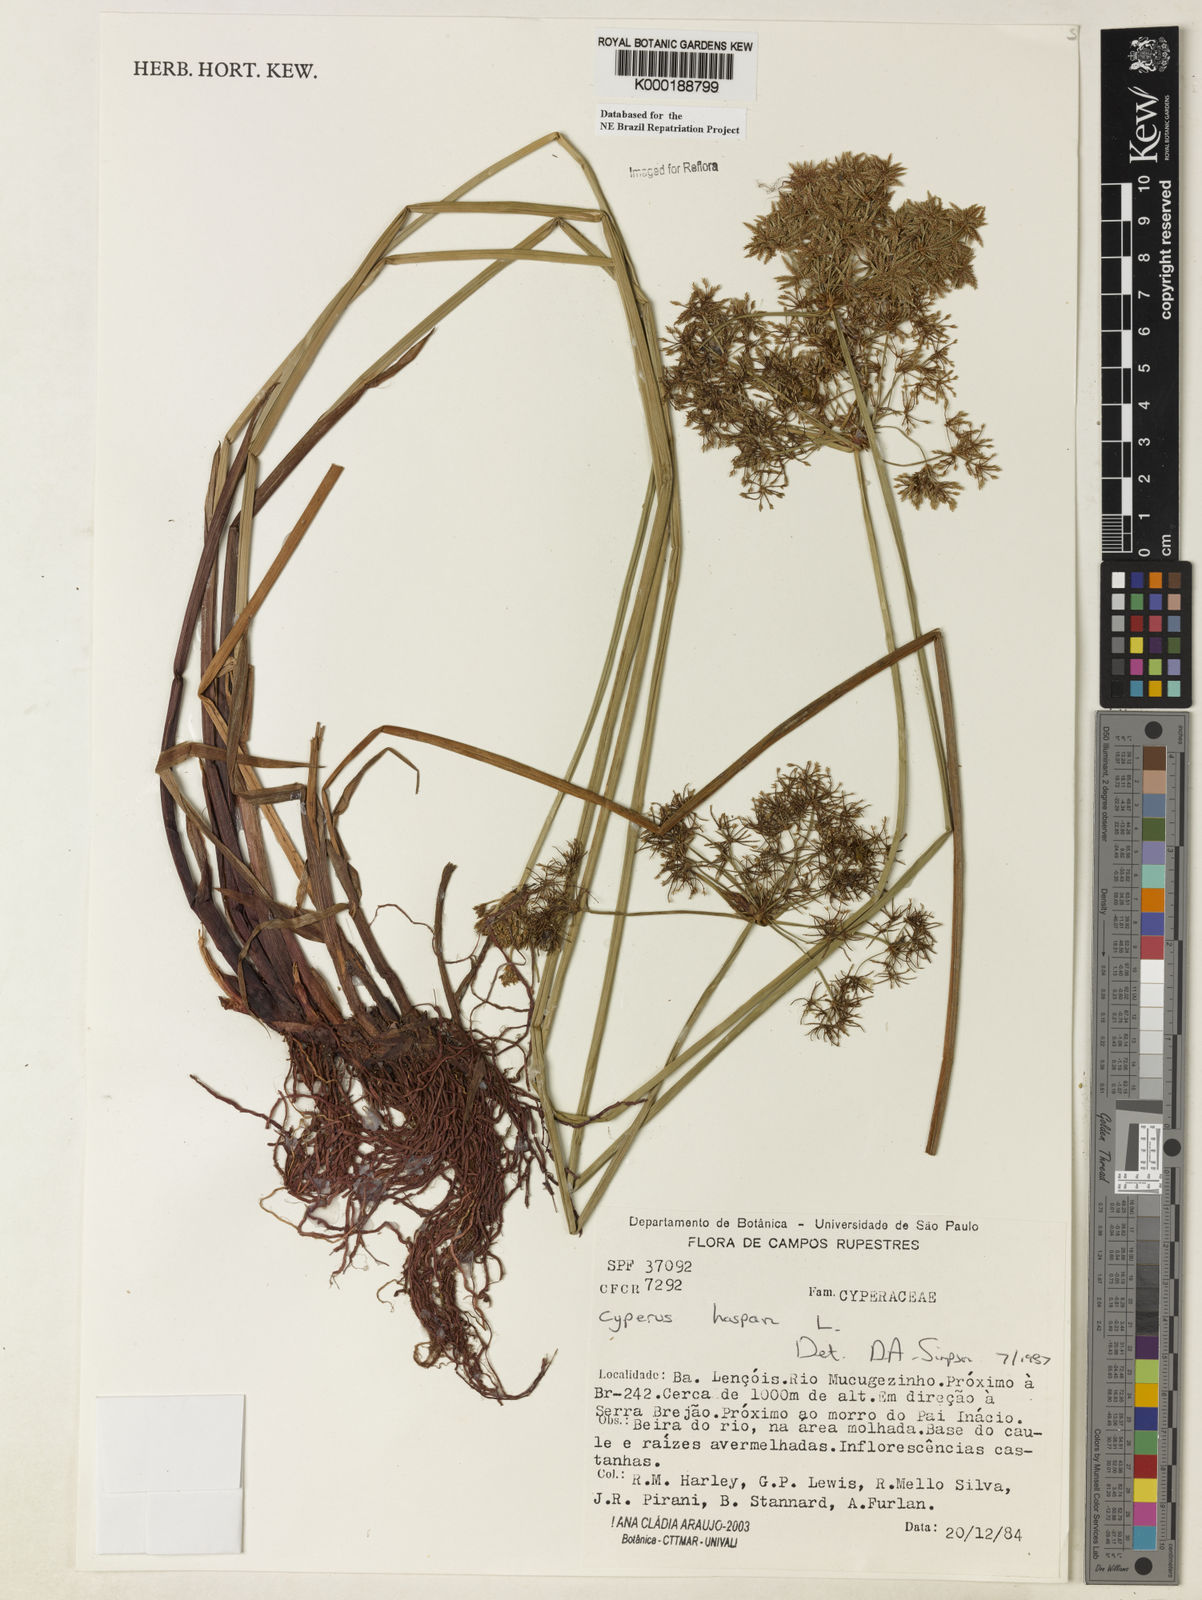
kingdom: Plantae
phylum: Tracheophyta
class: Liliopsida
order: Poales
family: Cyperaceae
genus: Cyperus
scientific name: Cyperus haspan
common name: Haspan flatsedge
